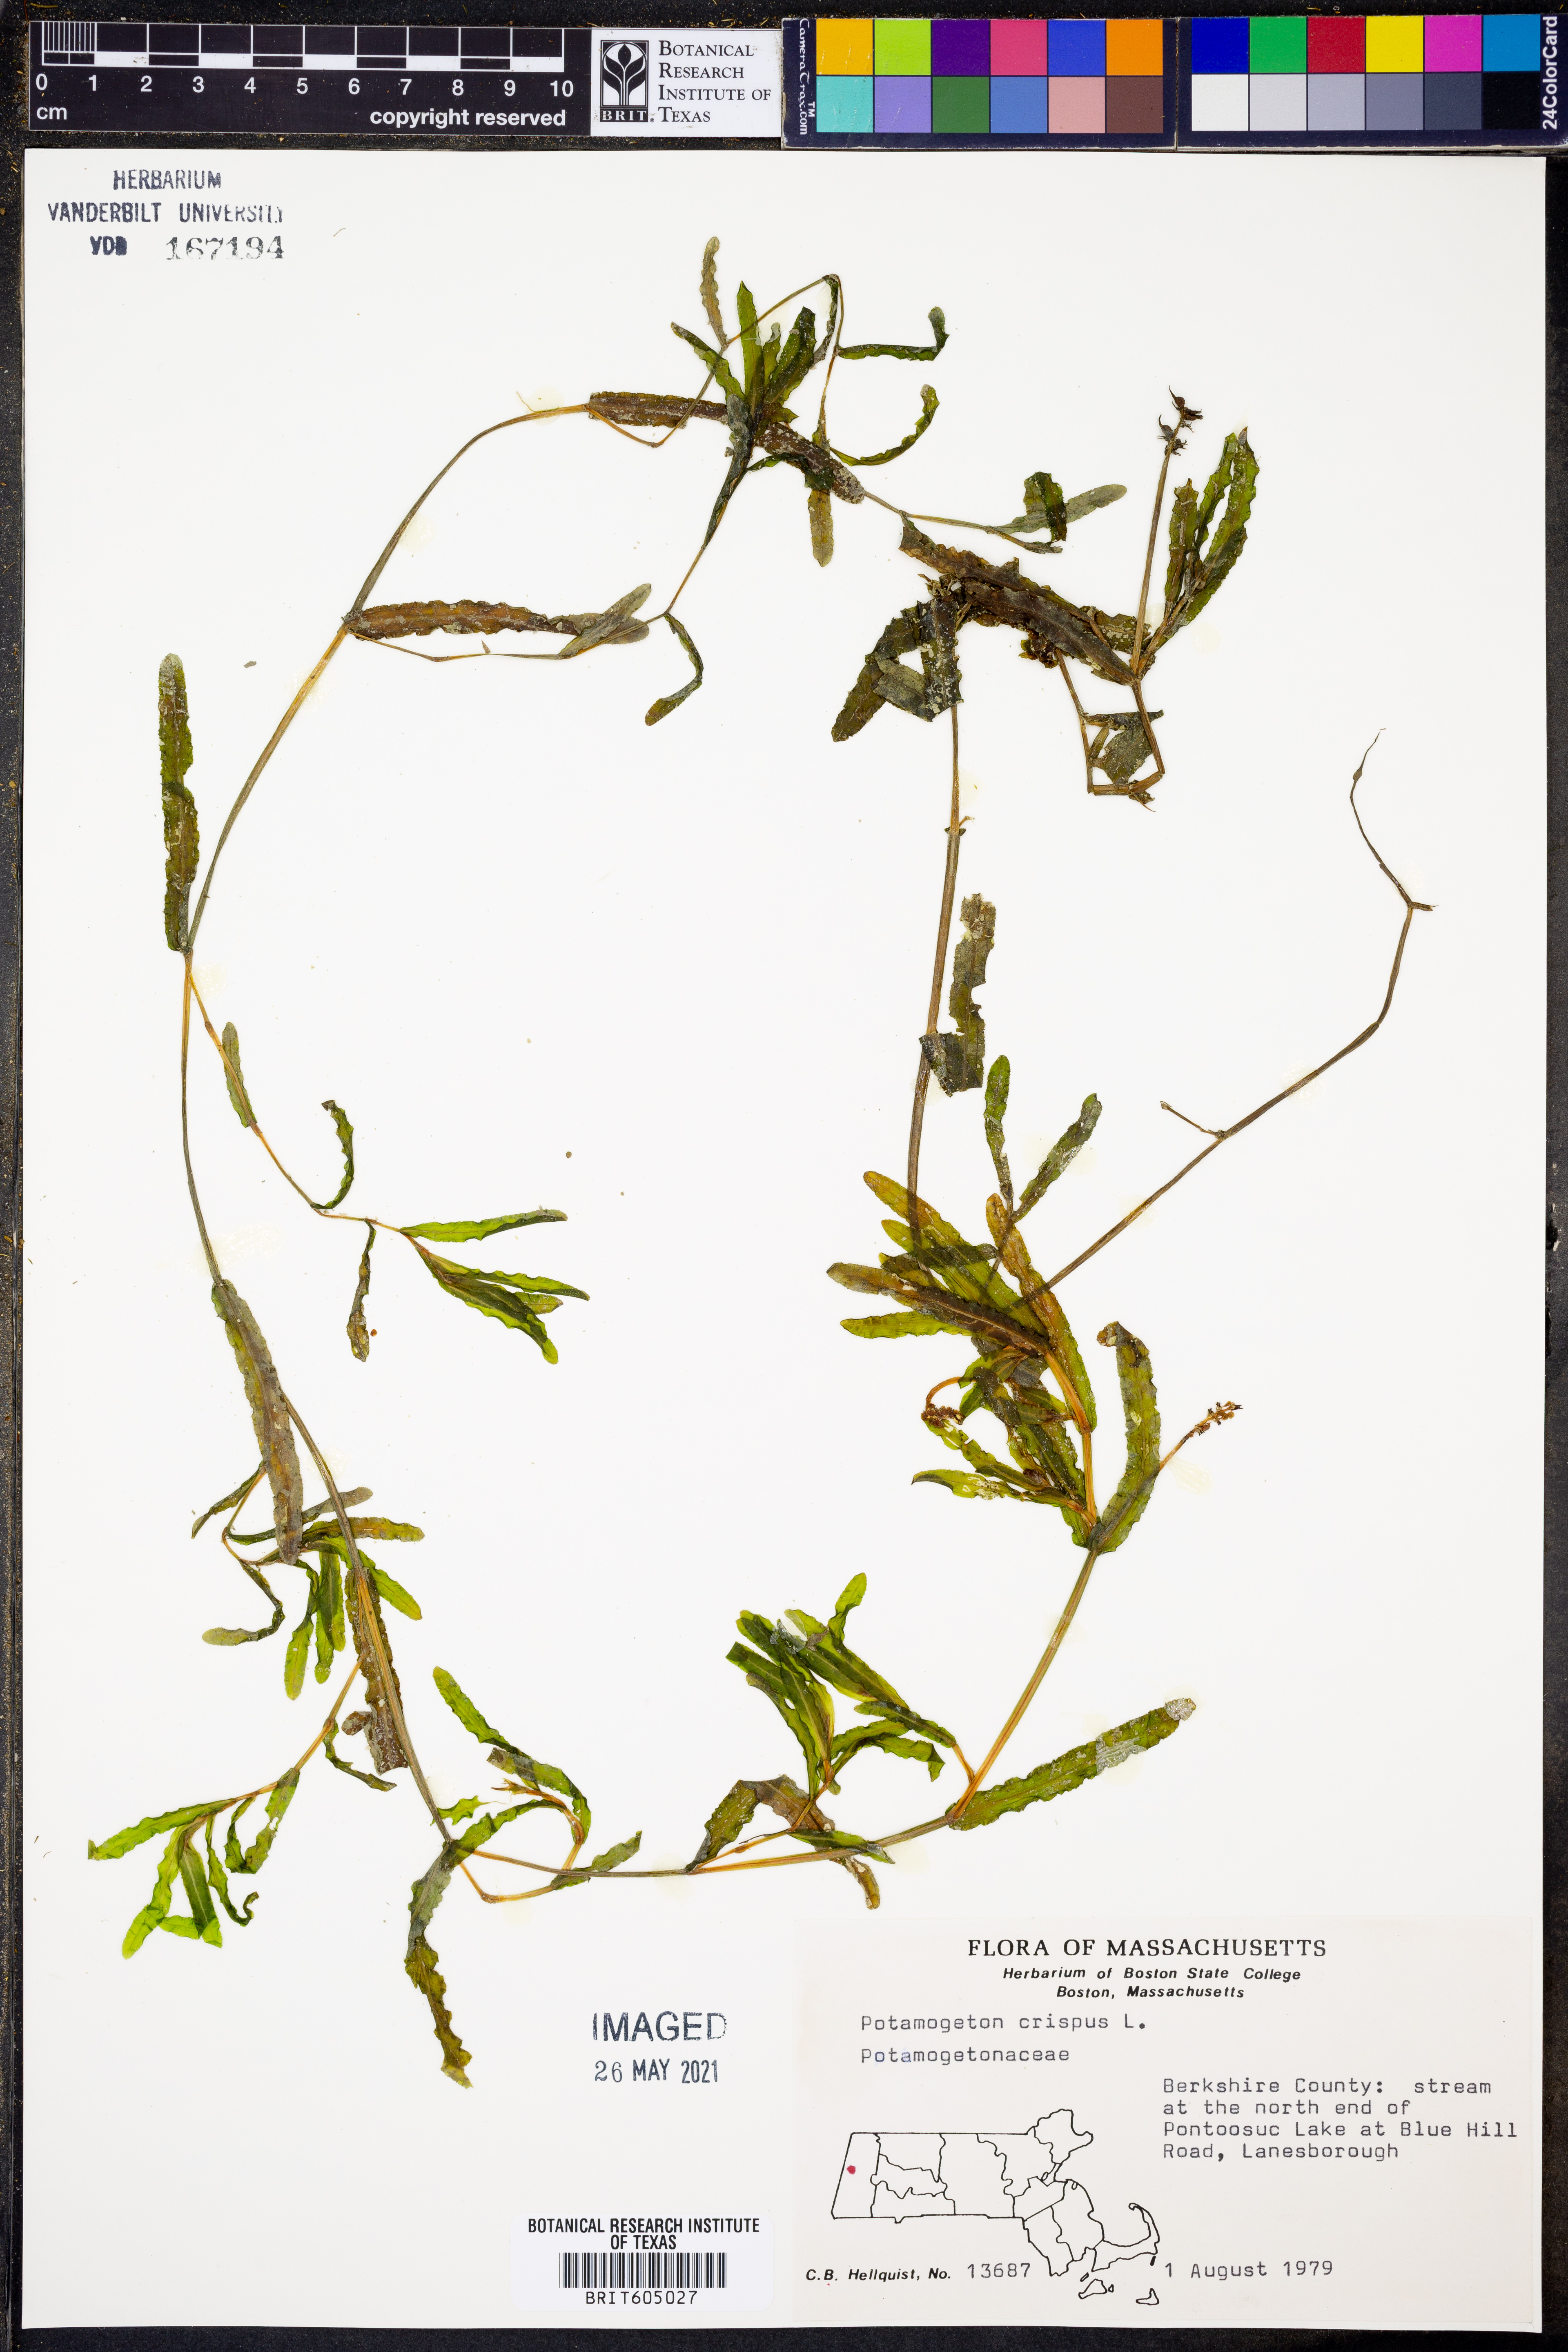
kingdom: Plantae
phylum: Tracheophyta
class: Liliopsida
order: Alismatales
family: Potamogetonaceae
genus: Potamogeton
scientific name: Potamogeton crispus
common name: Curled pondweed
